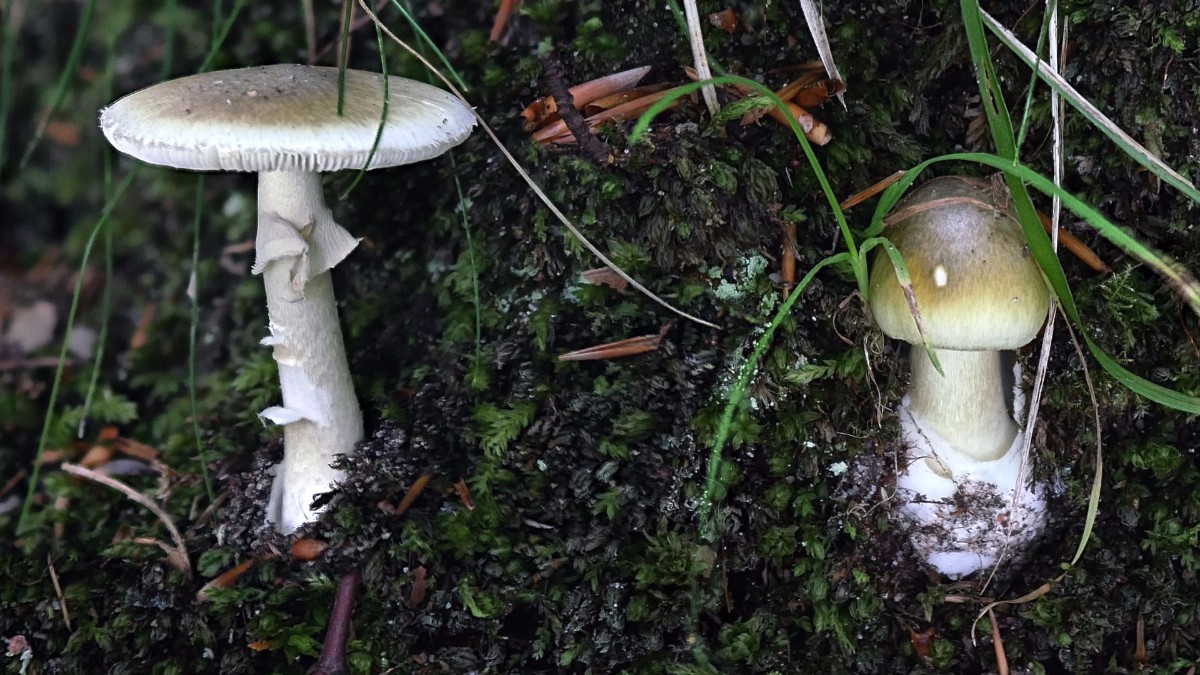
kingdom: Fungi
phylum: Basidiomycota
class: Agaricomycetes
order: Agaricales
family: Amanitaceae
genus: Amanita
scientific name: Amanita phalloides
